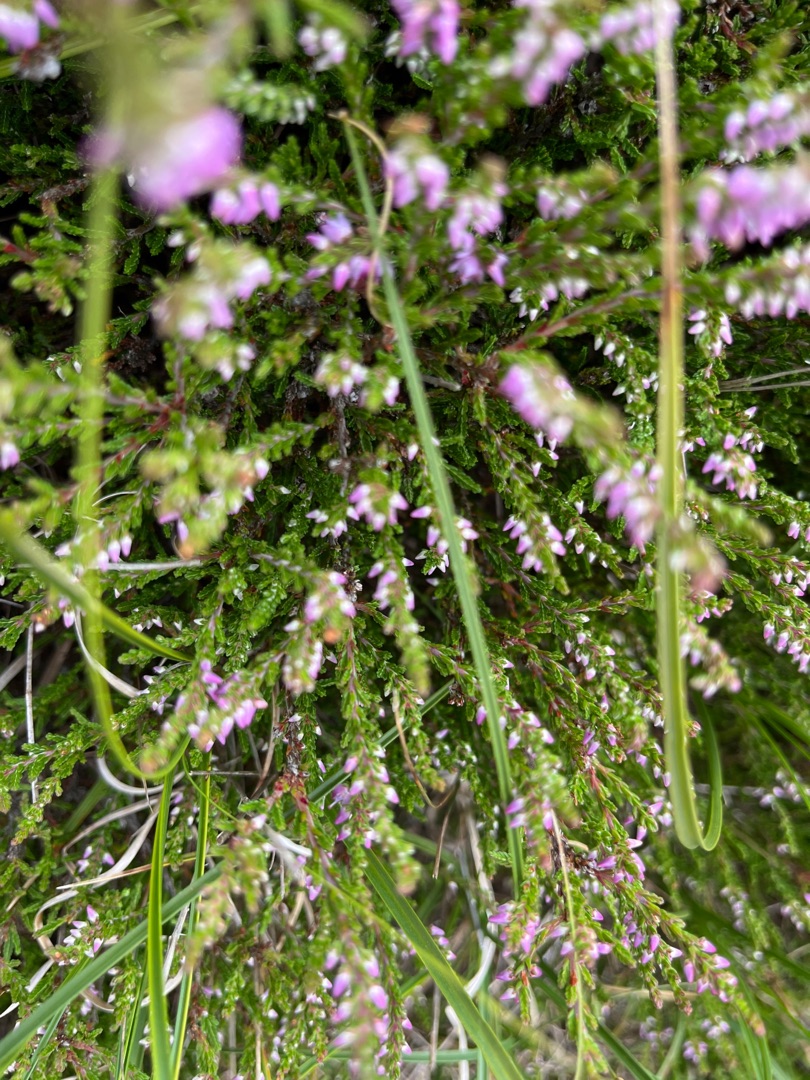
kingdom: Plantae
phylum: Tracheophyta
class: Magnoliopsida
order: Ericales
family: Ericaceae
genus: Calluna
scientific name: Calluna vulgaris
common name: Hedelyng
